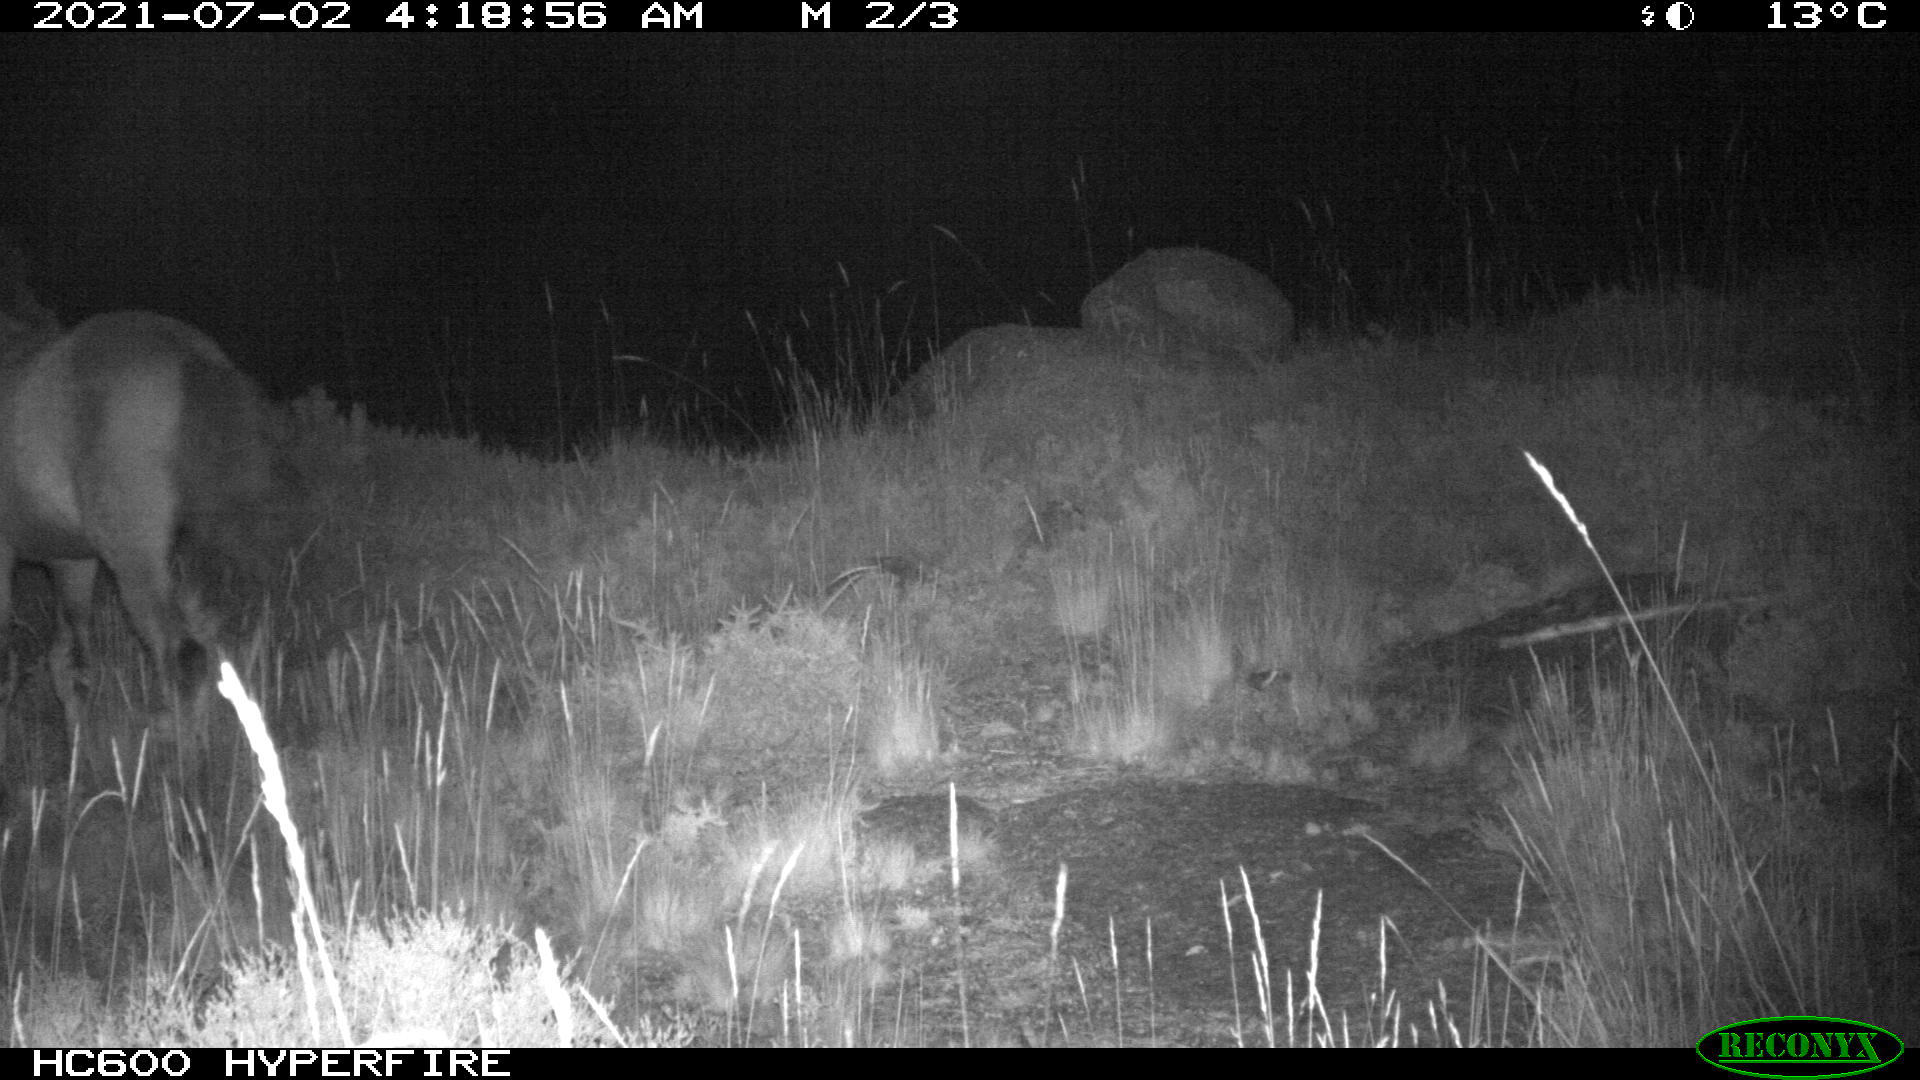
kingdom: Animalia
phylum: Chordata
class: Mammalia
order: Perissodactyla
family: Equidae
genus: Equus
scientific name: Equus caballus
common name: Horse
